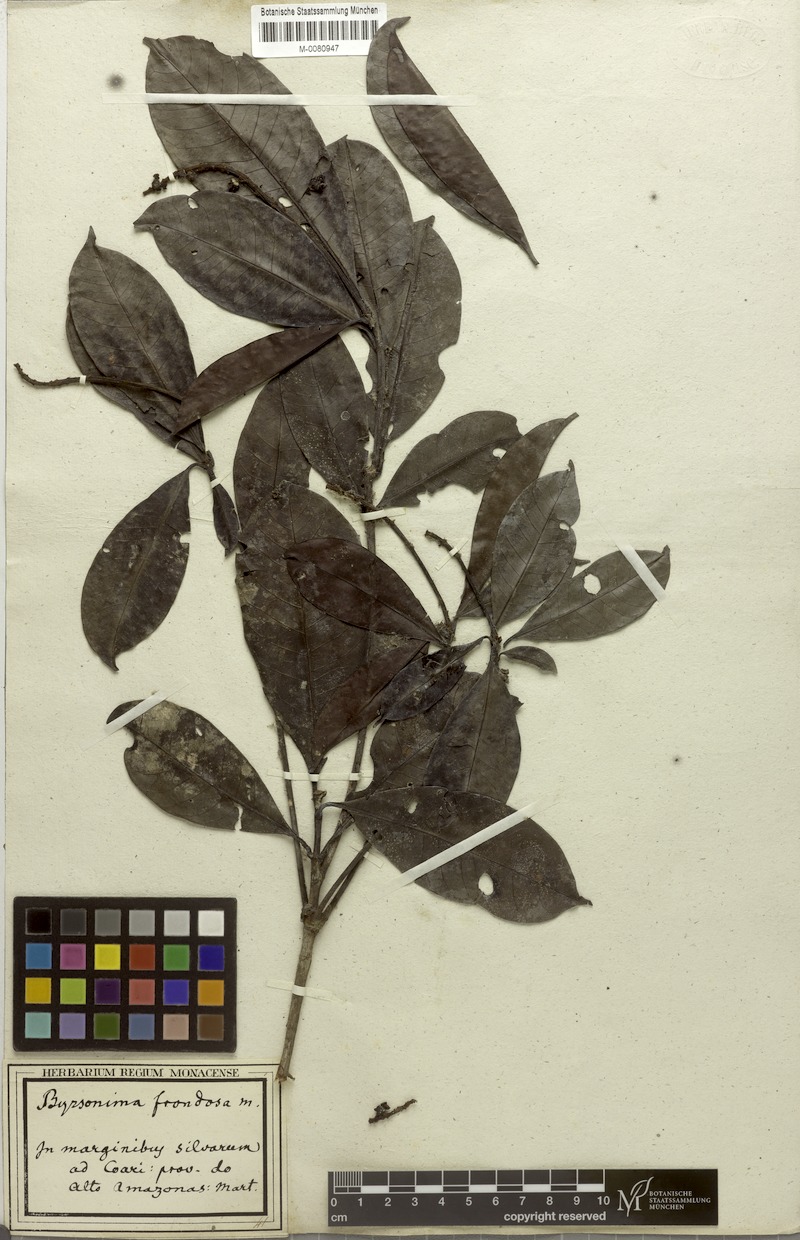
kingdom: Plantae
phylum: Tracheophyta
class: Magnoliopsida
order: Malpighiales
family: Malpighiaceae
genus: Byrsonima
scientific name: Byrsonima frondosa
